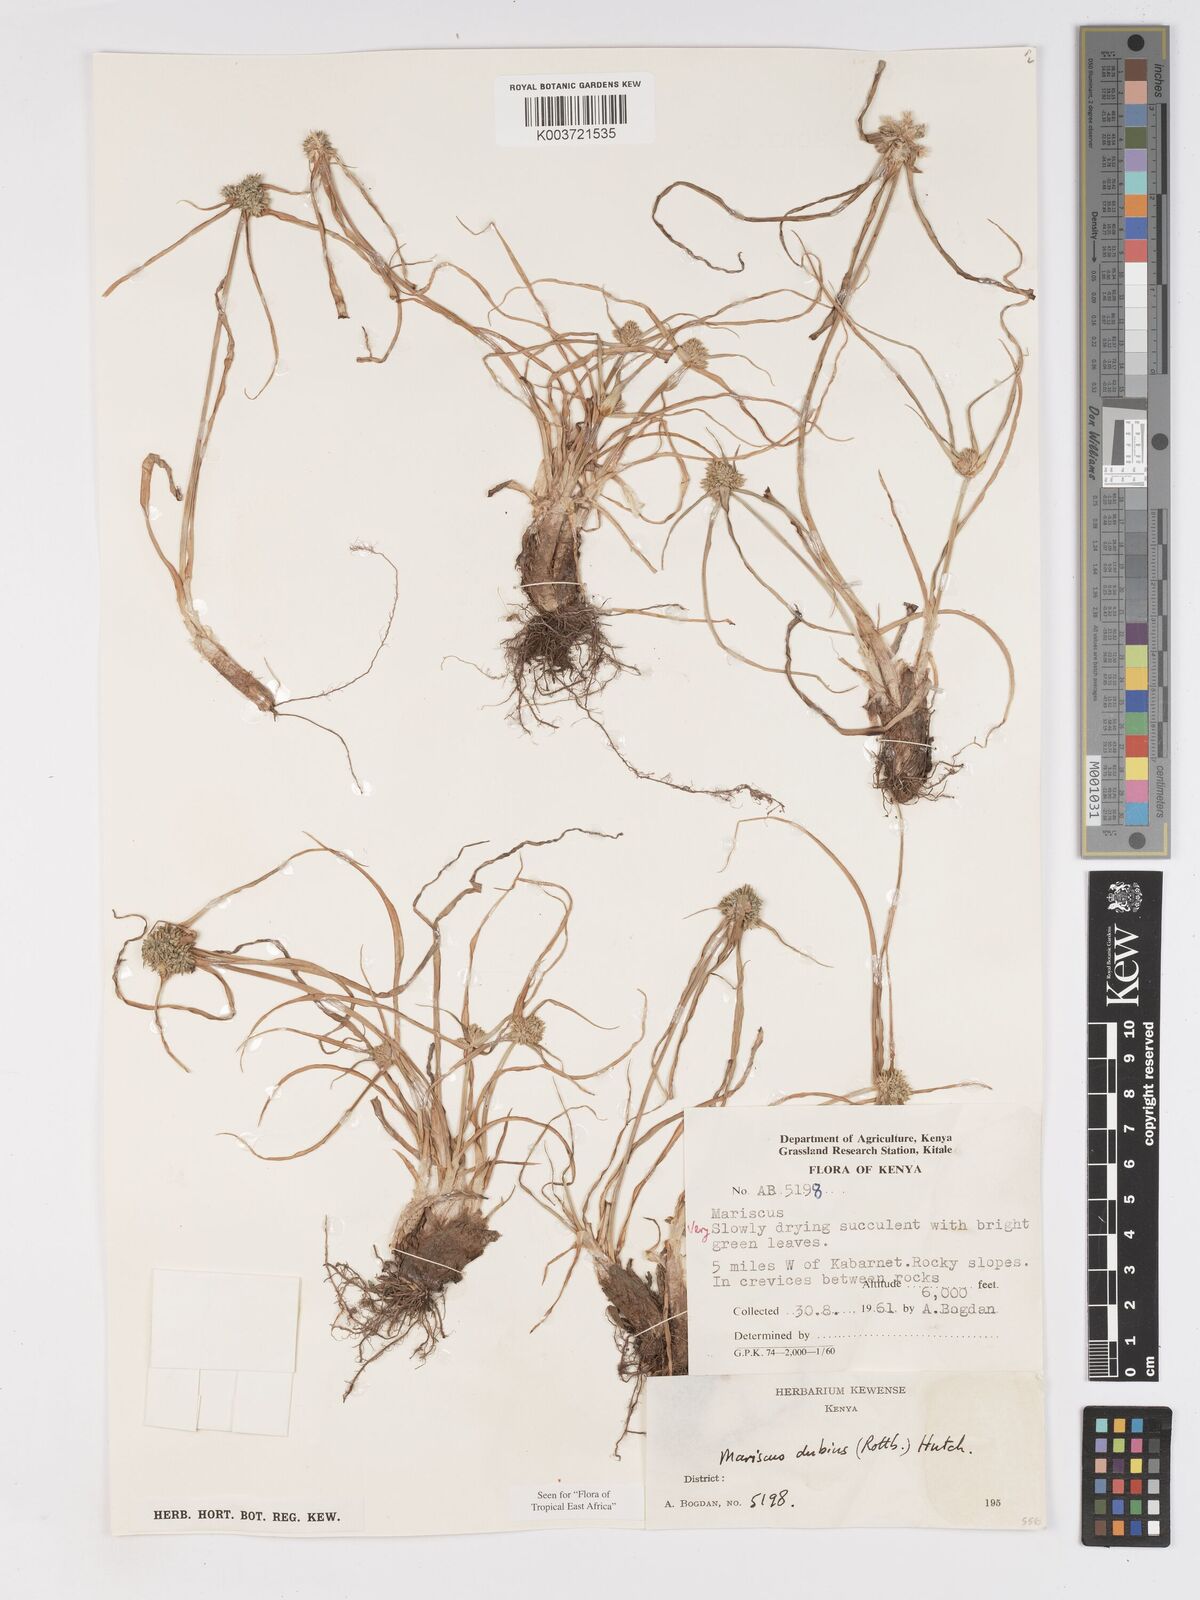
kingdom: Plantae
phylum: Tracheophyta
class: Liliopsida
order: Poales
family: Cyperaceae
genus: Cyperus
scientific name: Cyperus dubius
